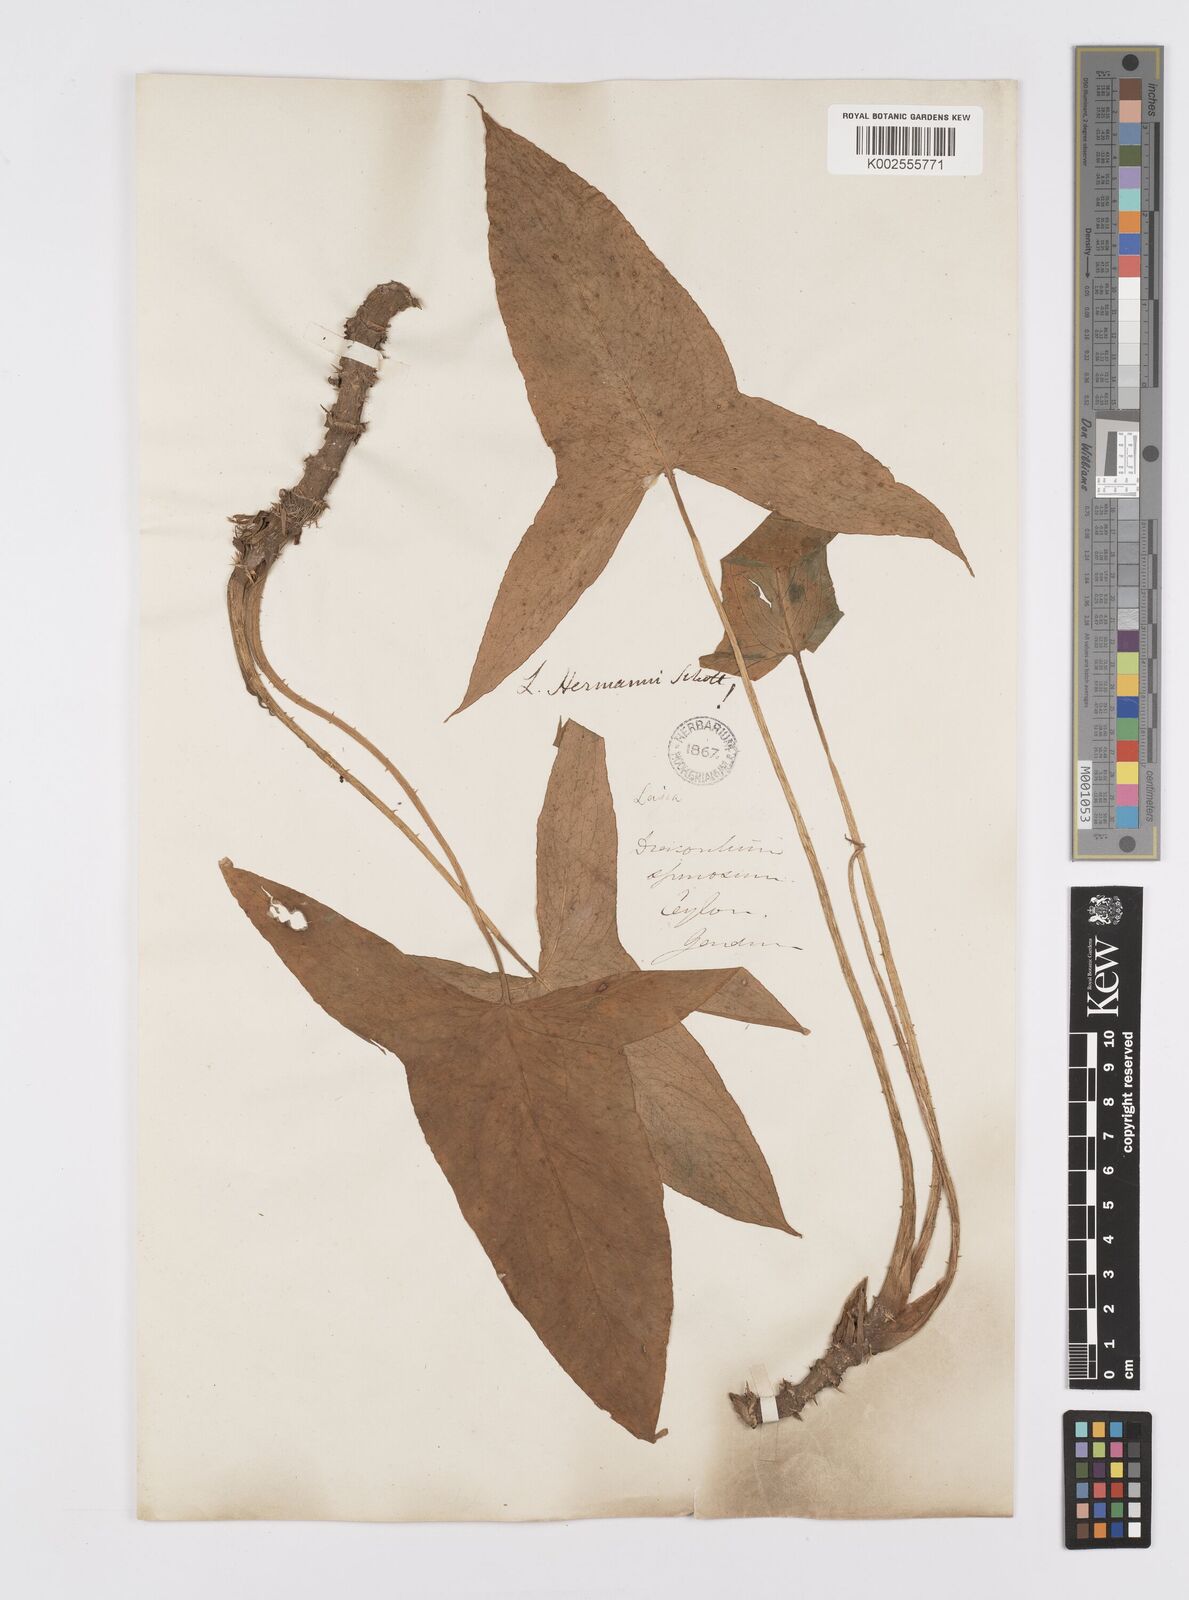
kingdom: Plantae
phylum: Tracheophyta
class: Liliopsida
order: Alismatales
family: Araceae
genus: Lasia
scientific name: Lasia spinosa
